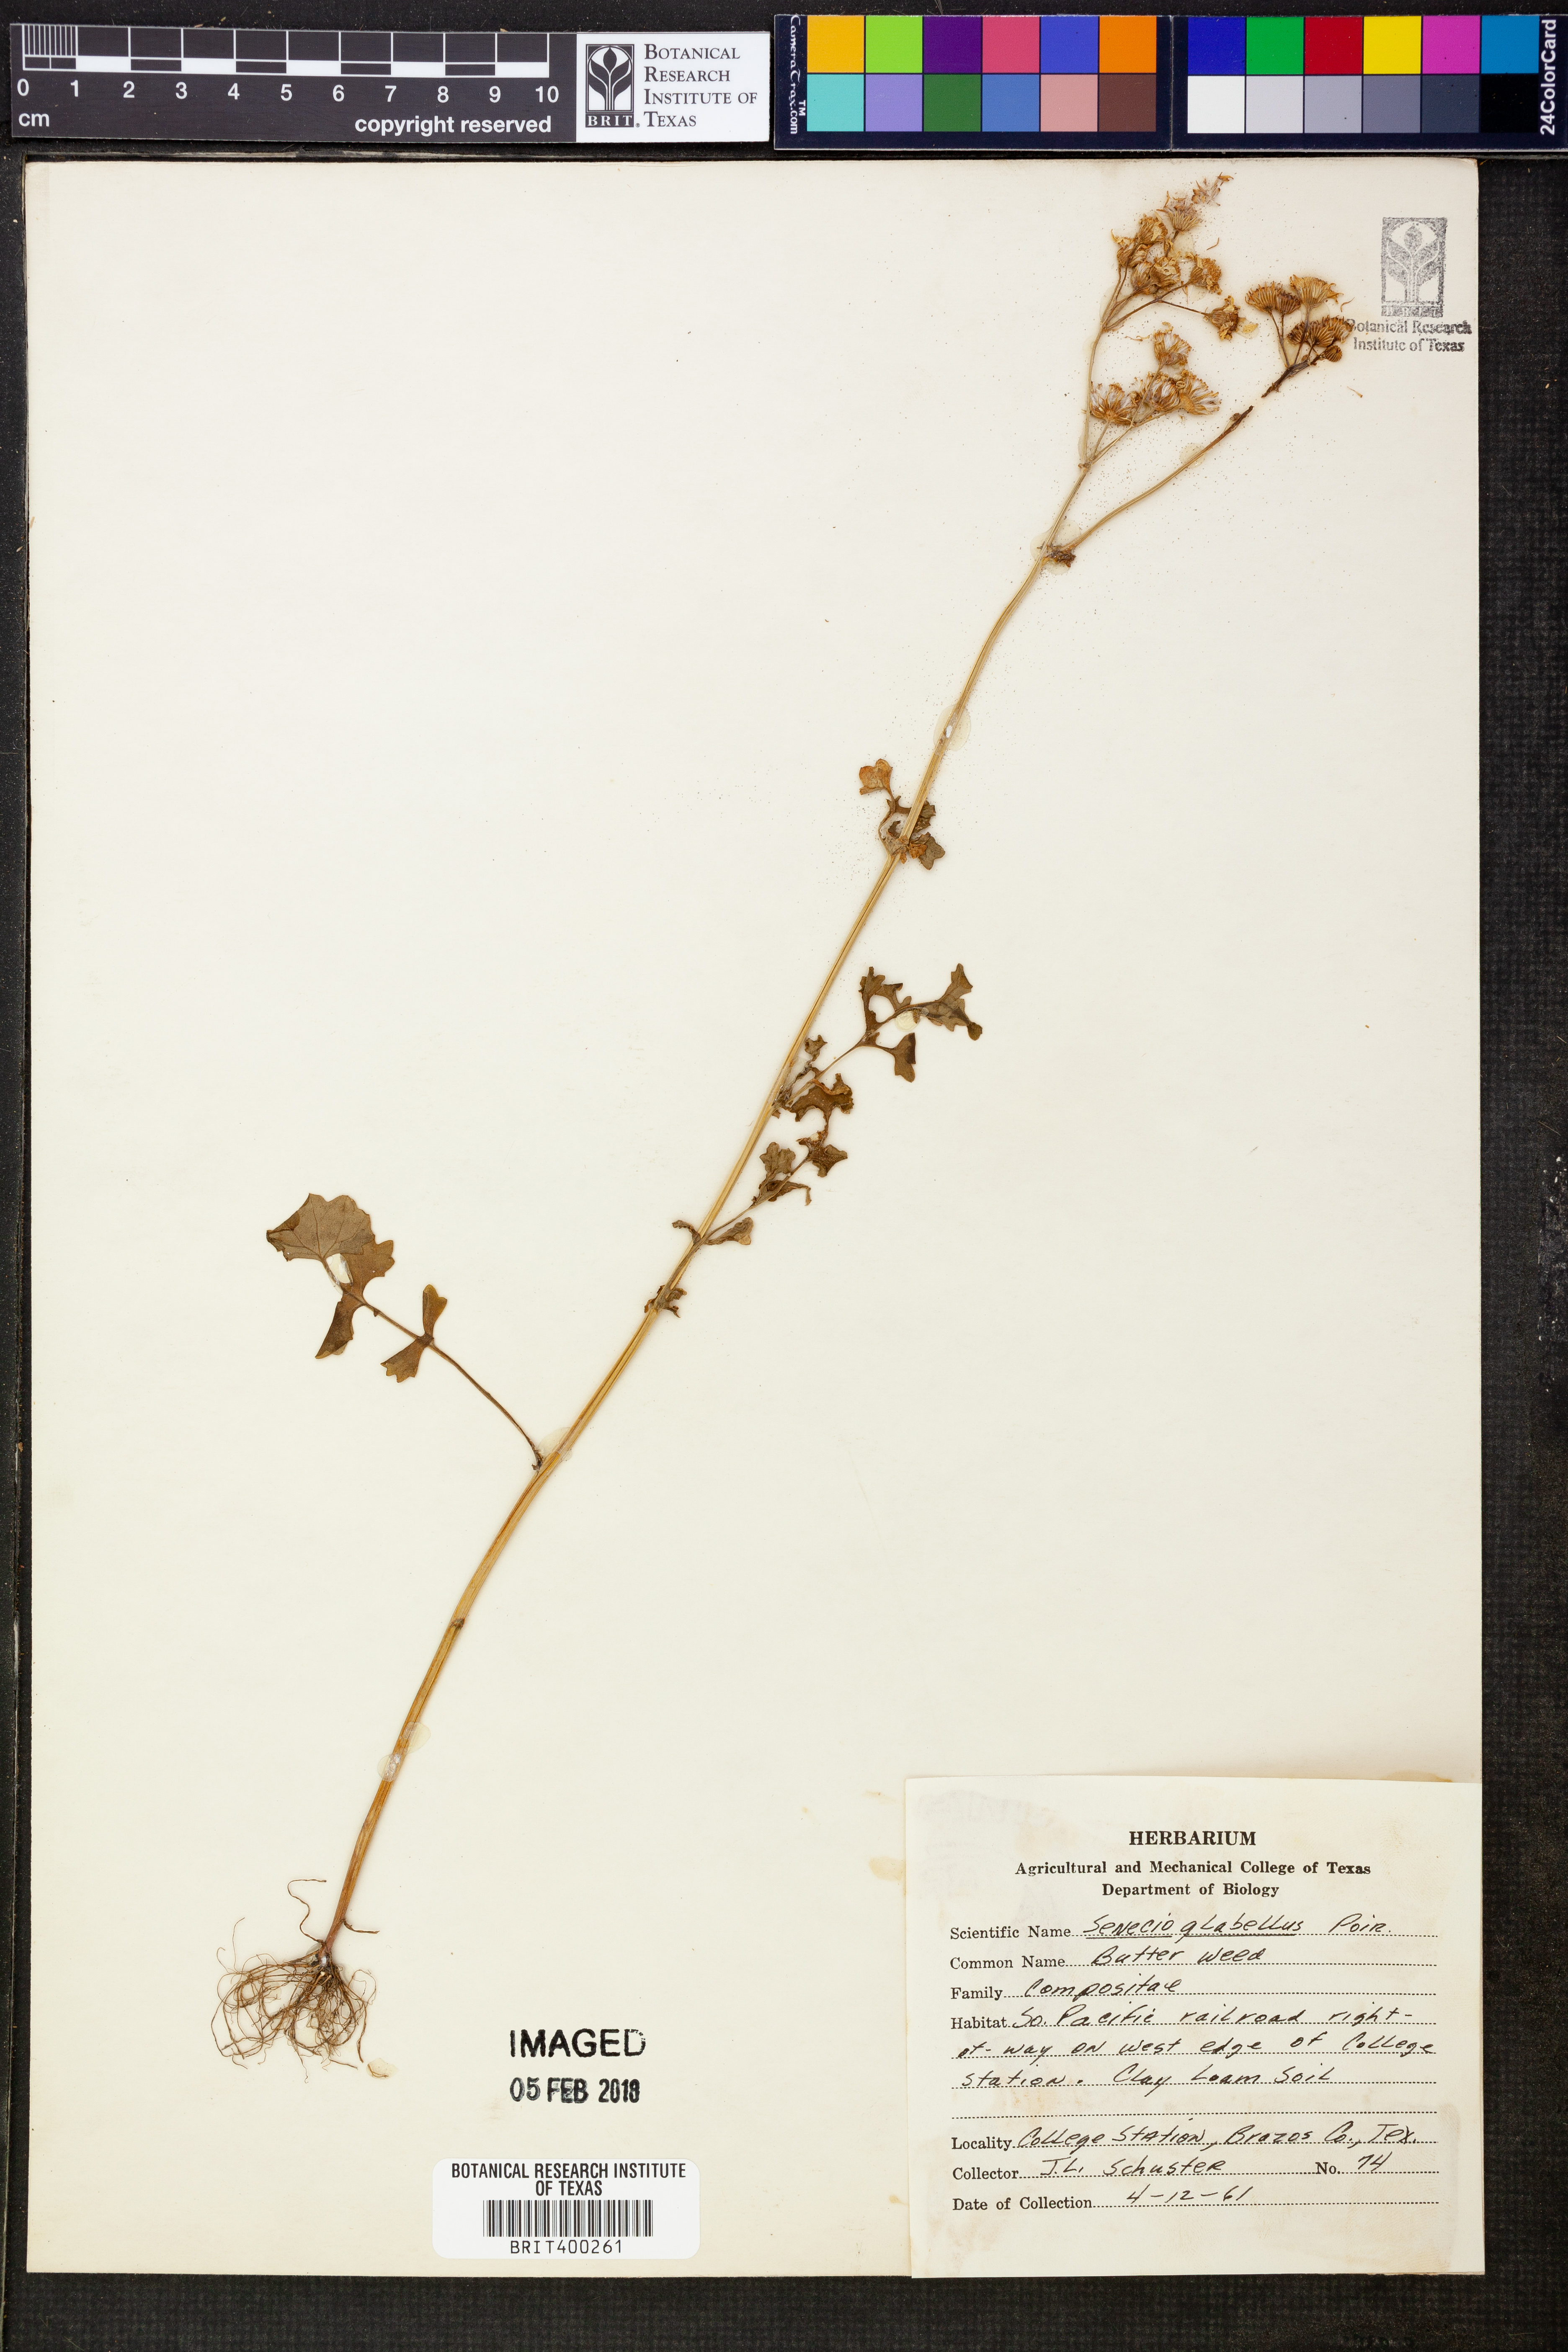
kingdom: Plantae
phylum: Tracheophyta
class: Magnoliopsida
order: Asterales
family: Asteraceae
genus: Tephroseris
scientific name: Tephroseris praticola
